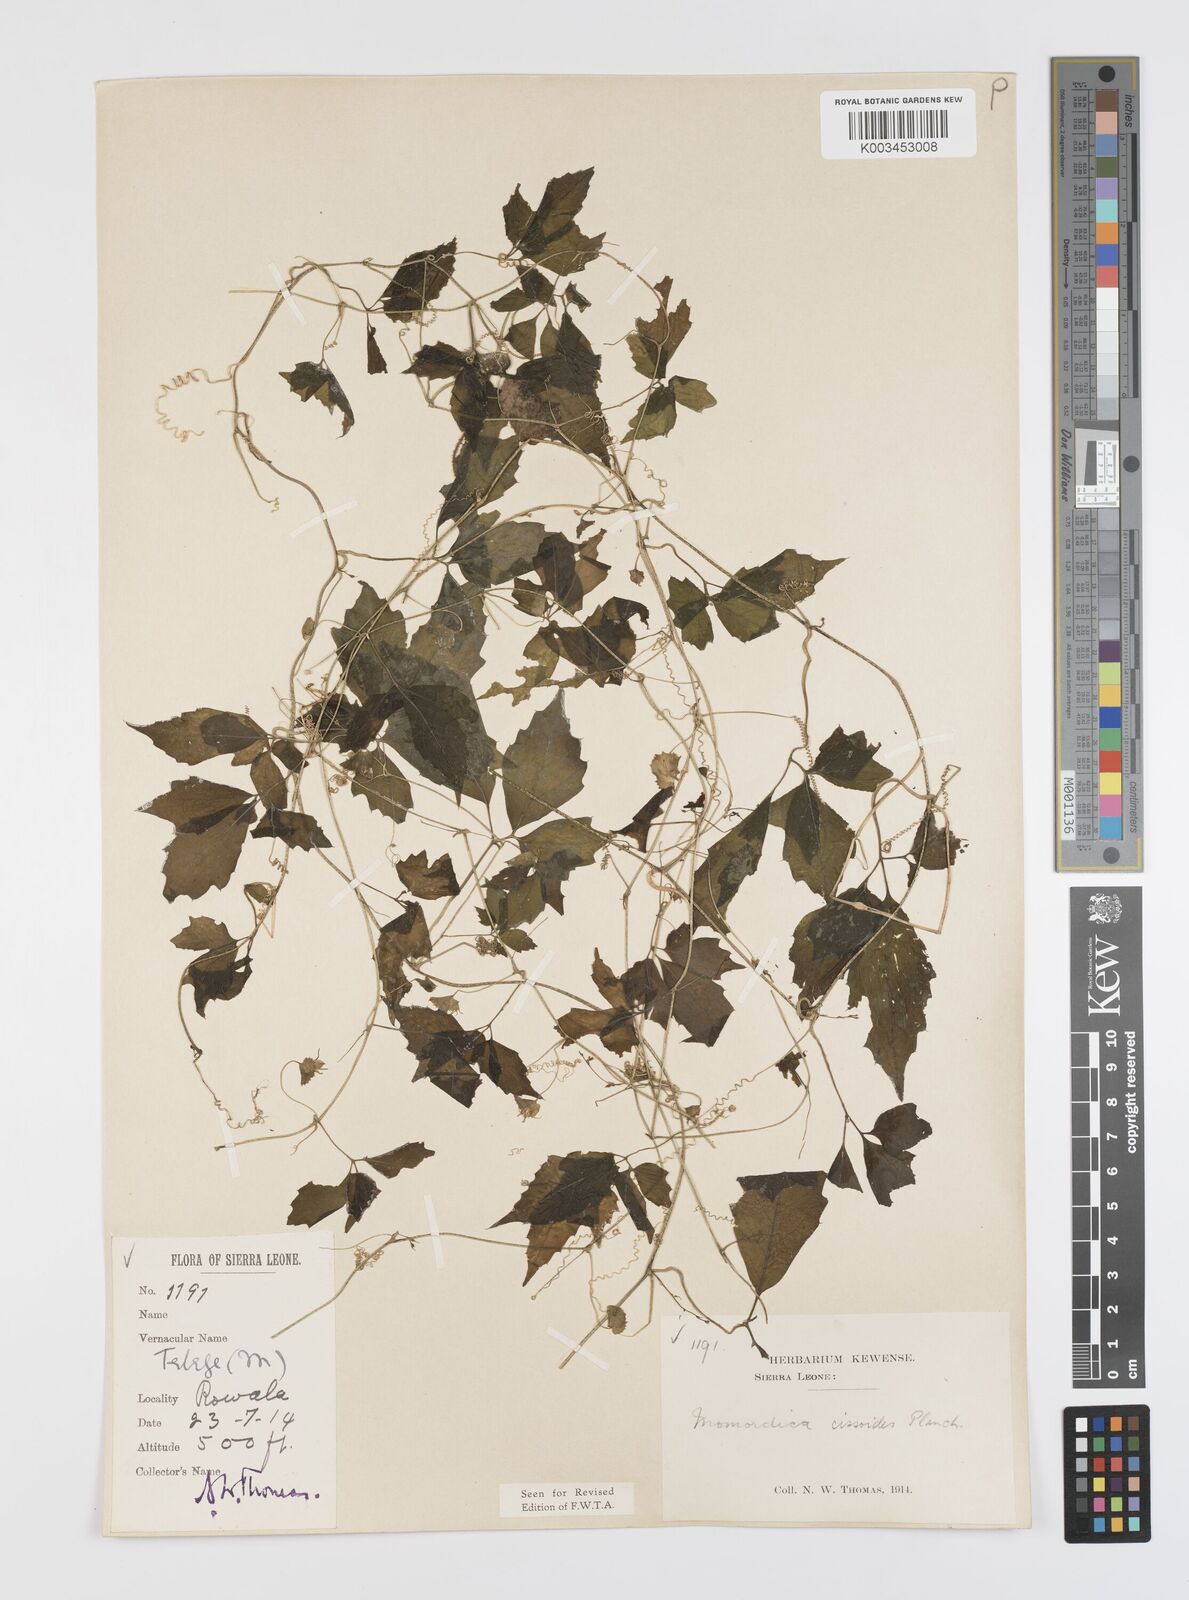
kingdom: Plantae
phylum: Tracheophyta
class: Magnoliopsida
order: Cucurbitales
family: Cucurbitaceae
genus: Momordica
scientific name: Momordica cissoides
